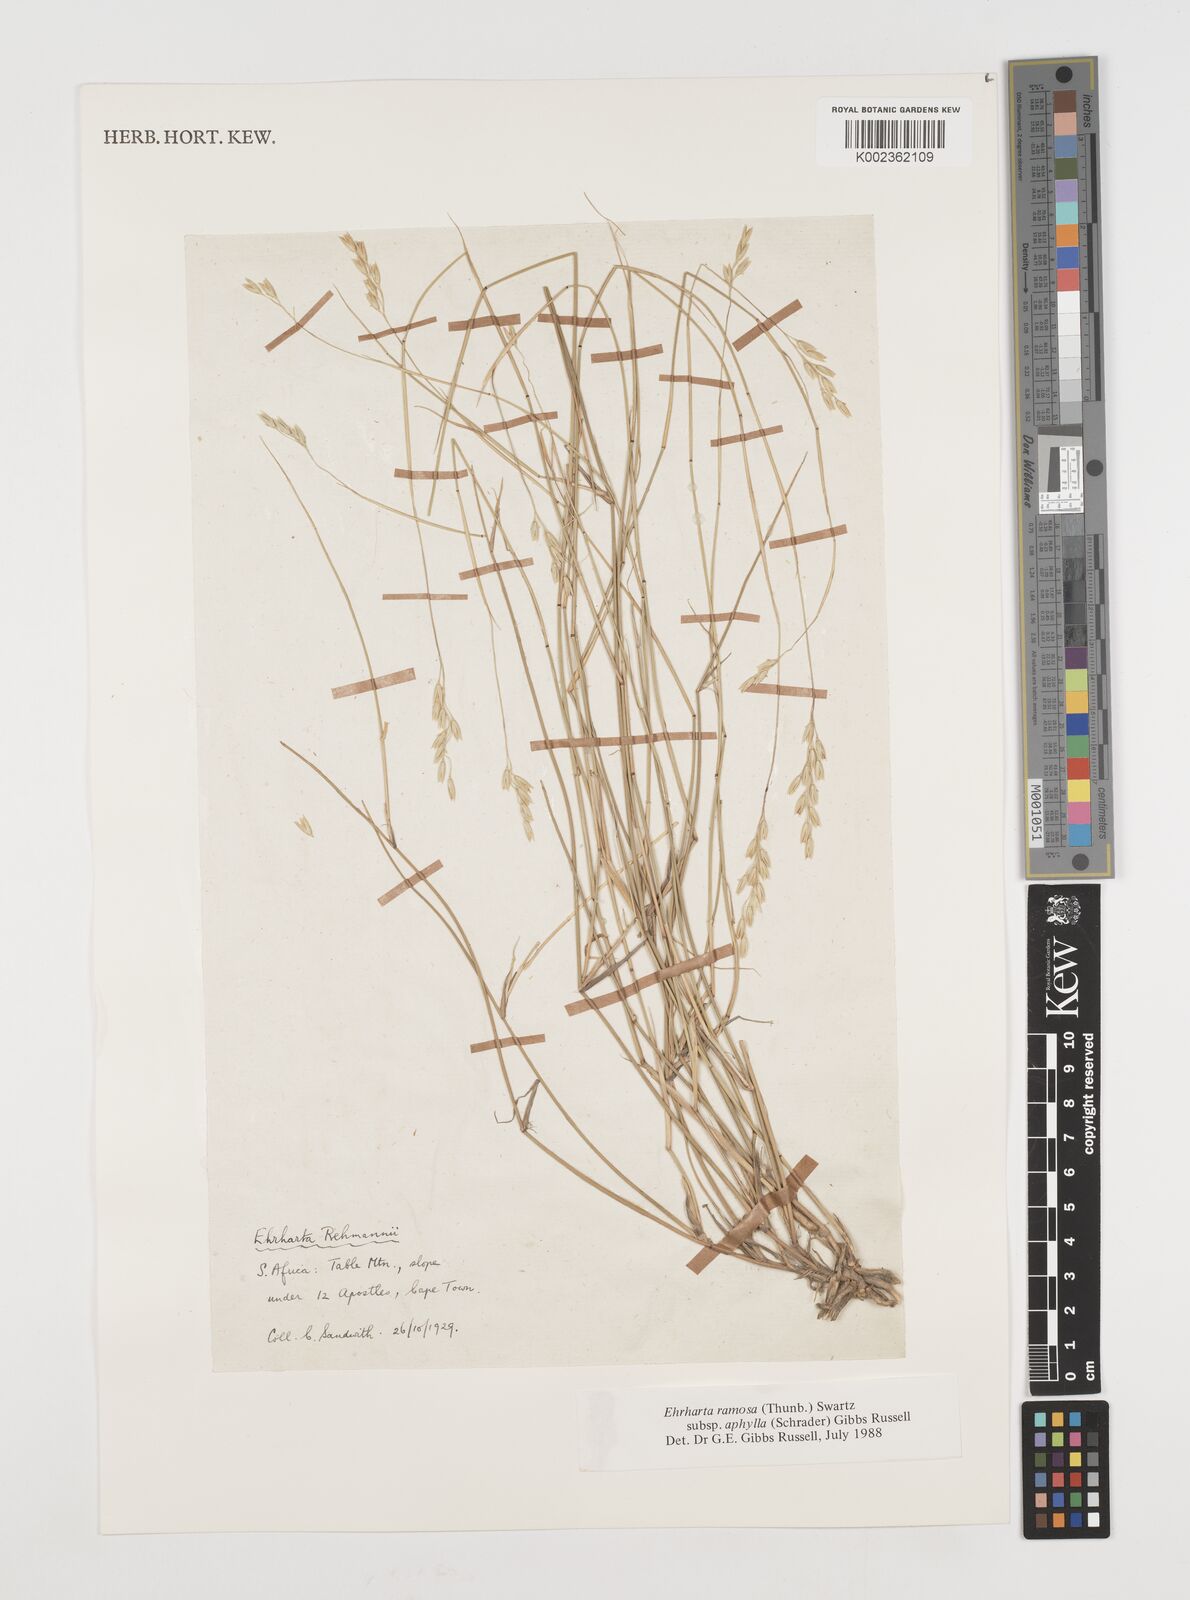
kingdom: Plantae
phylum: Tracheophyta
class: Liliopsida
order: Poales
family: Poaceae
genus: Ehrharta
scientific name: Ehrharta digyna
